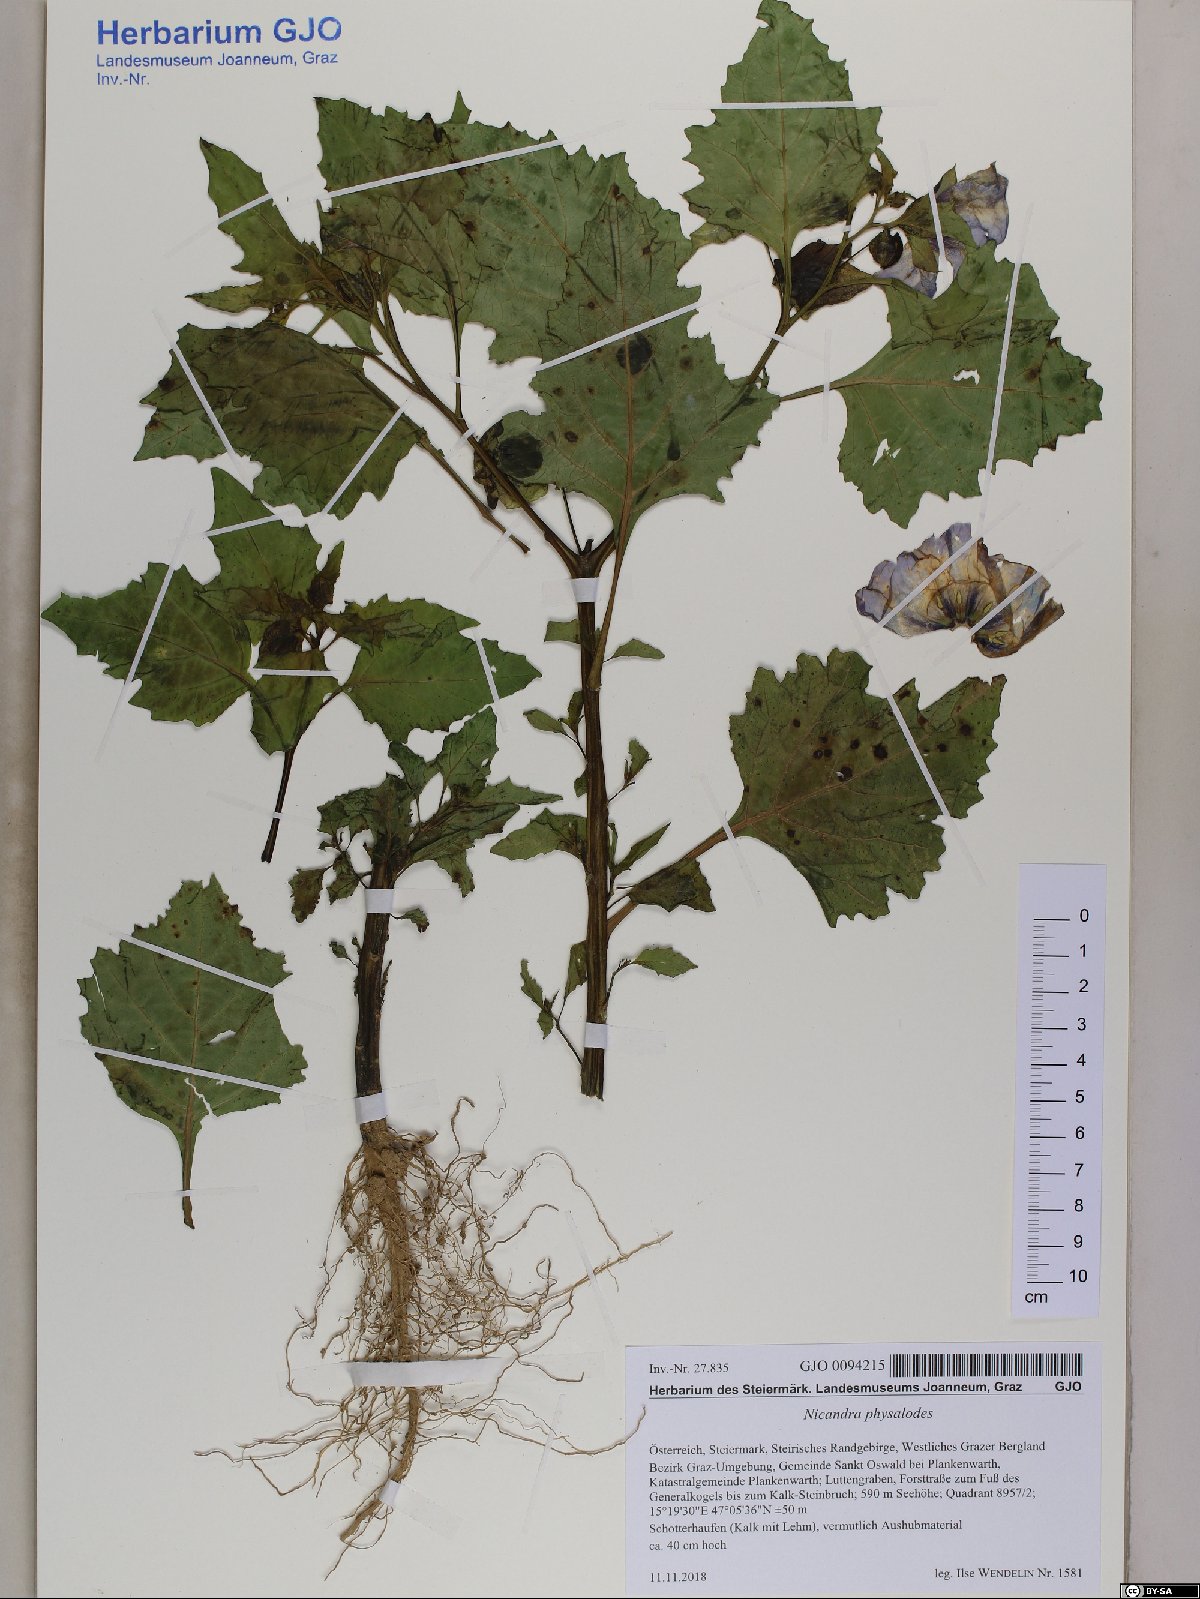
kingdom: Plantae
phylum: Tracheophyta
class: Magnoliopsida
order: Solanales
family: Solanaceae
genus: Nicandra
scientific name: Nicandra physalodes
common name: Apple-of-peru
